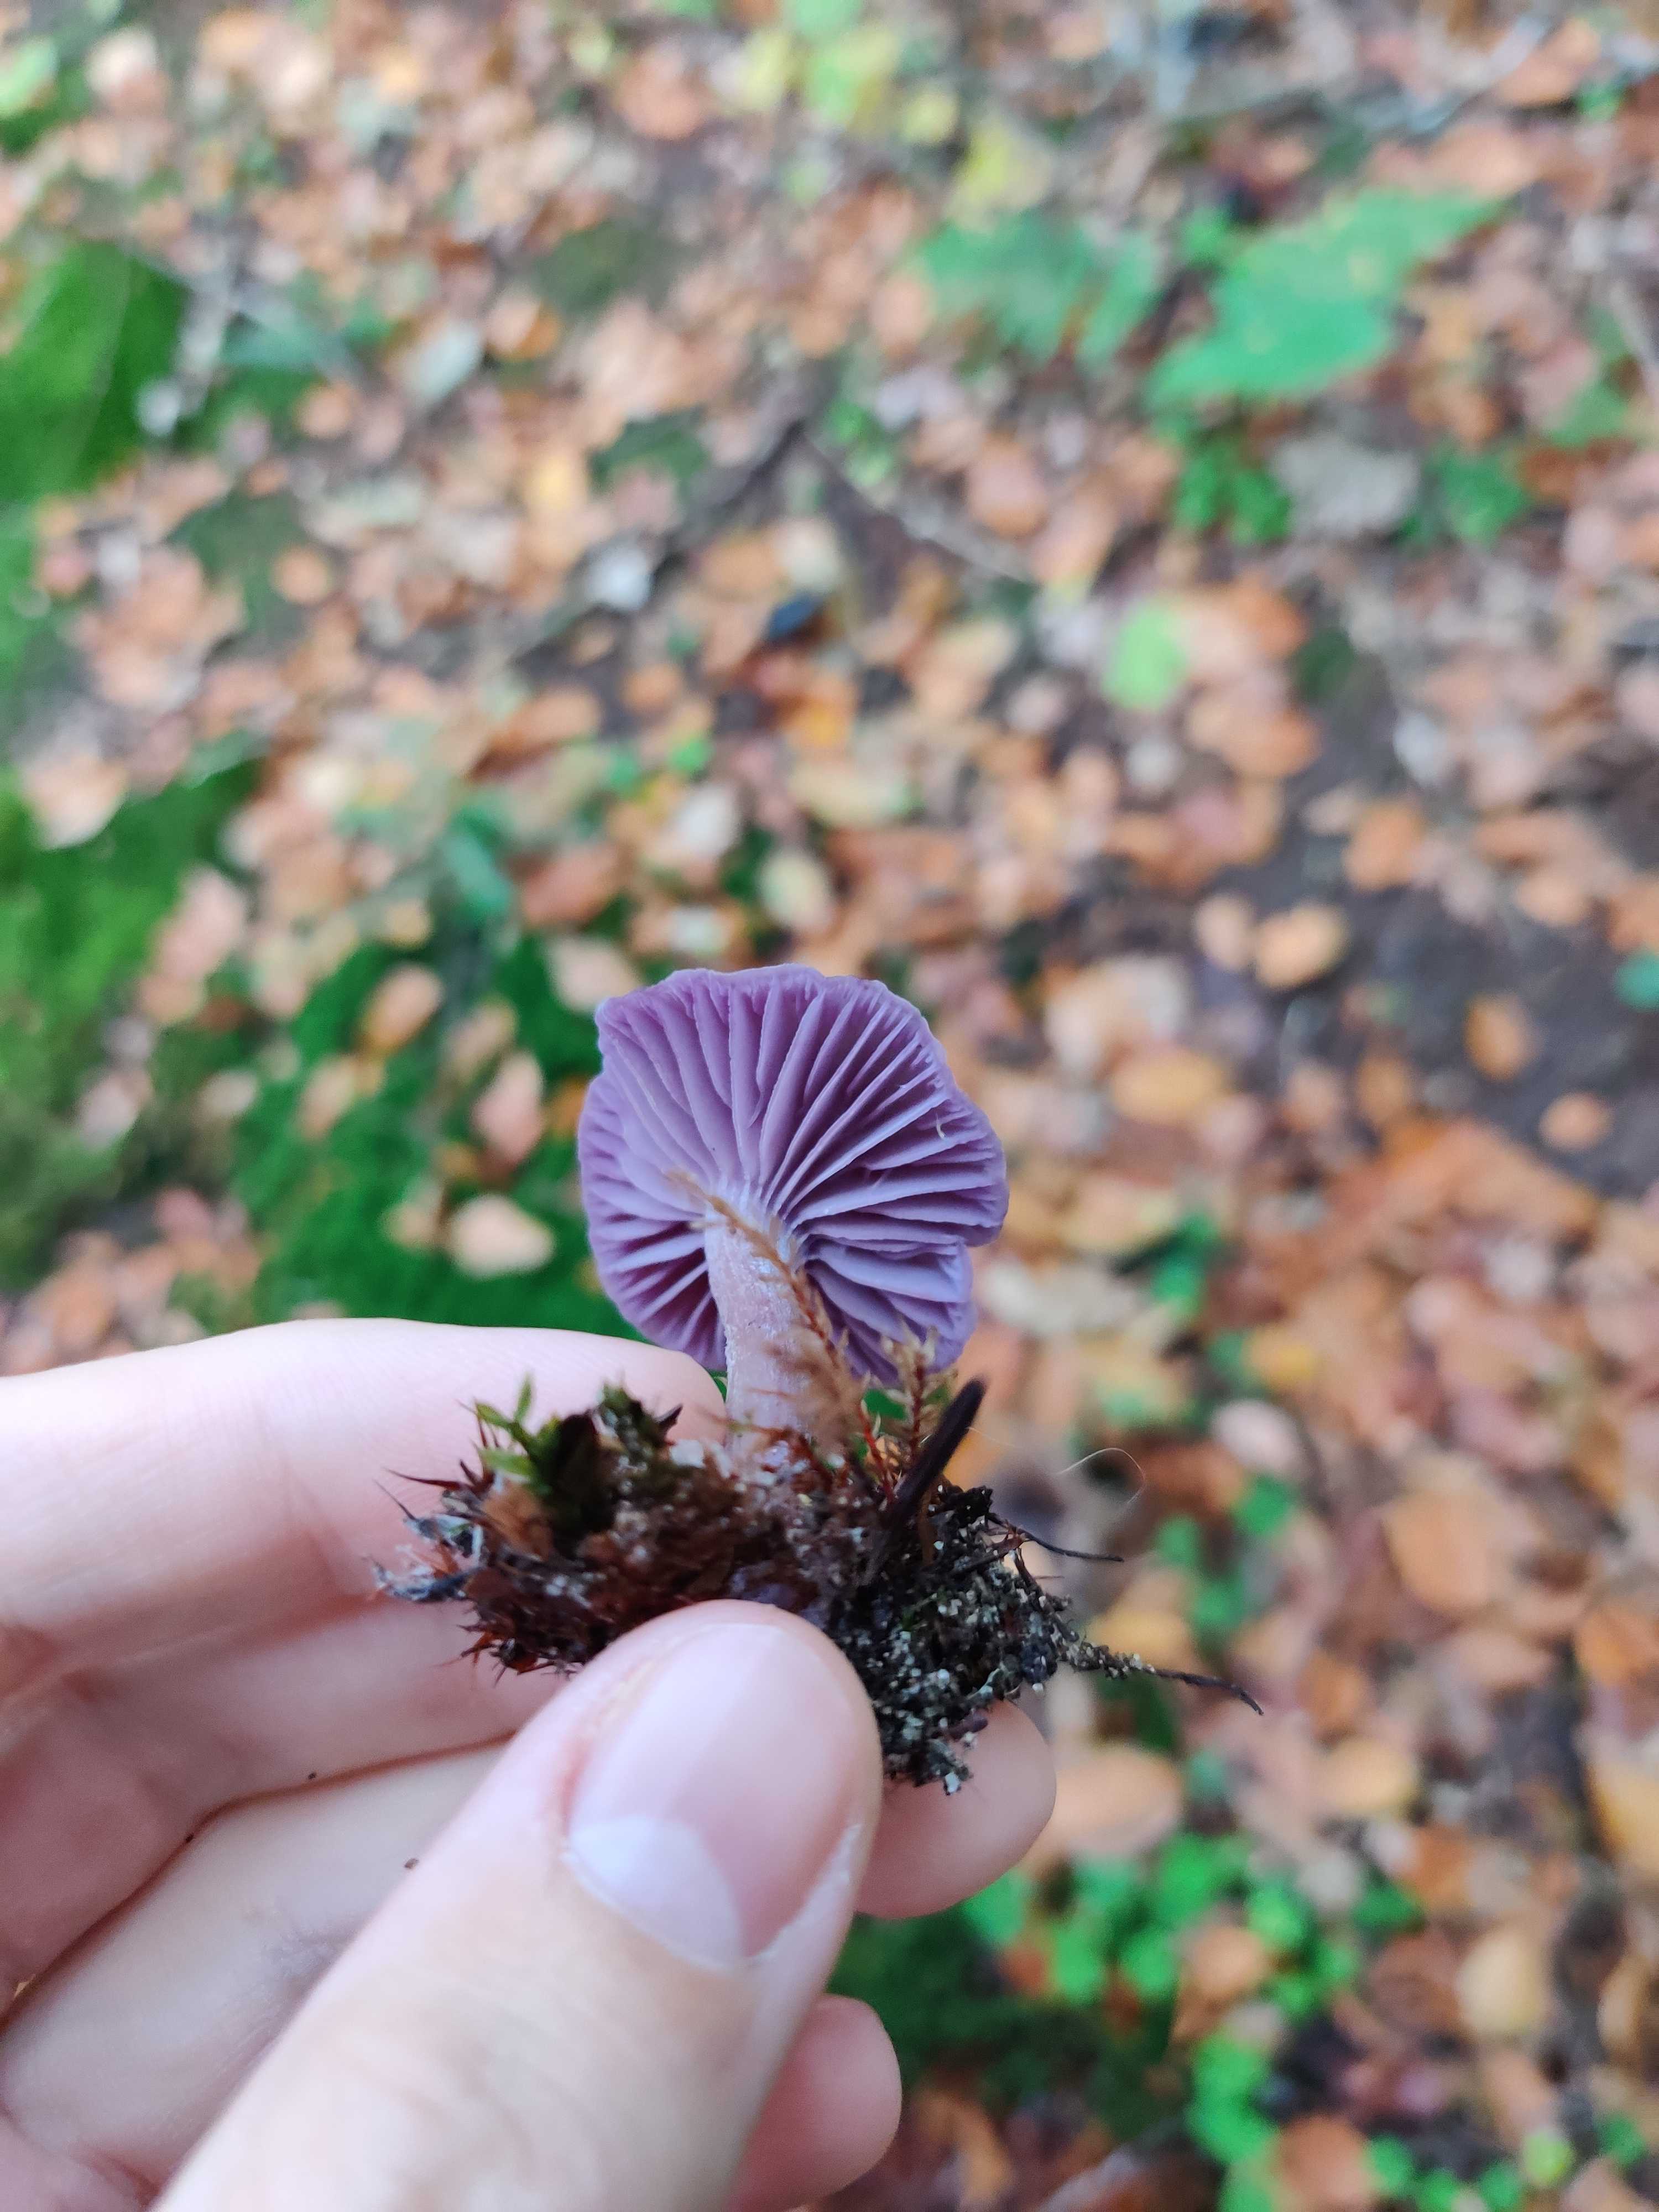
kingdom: Fungi
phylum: Basidiomycota
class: Agaricomycetes
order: Agaricales
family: Hydnangiaceae
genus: Laccaria
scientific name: Laccaria amethystina
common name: violet ametysthat
